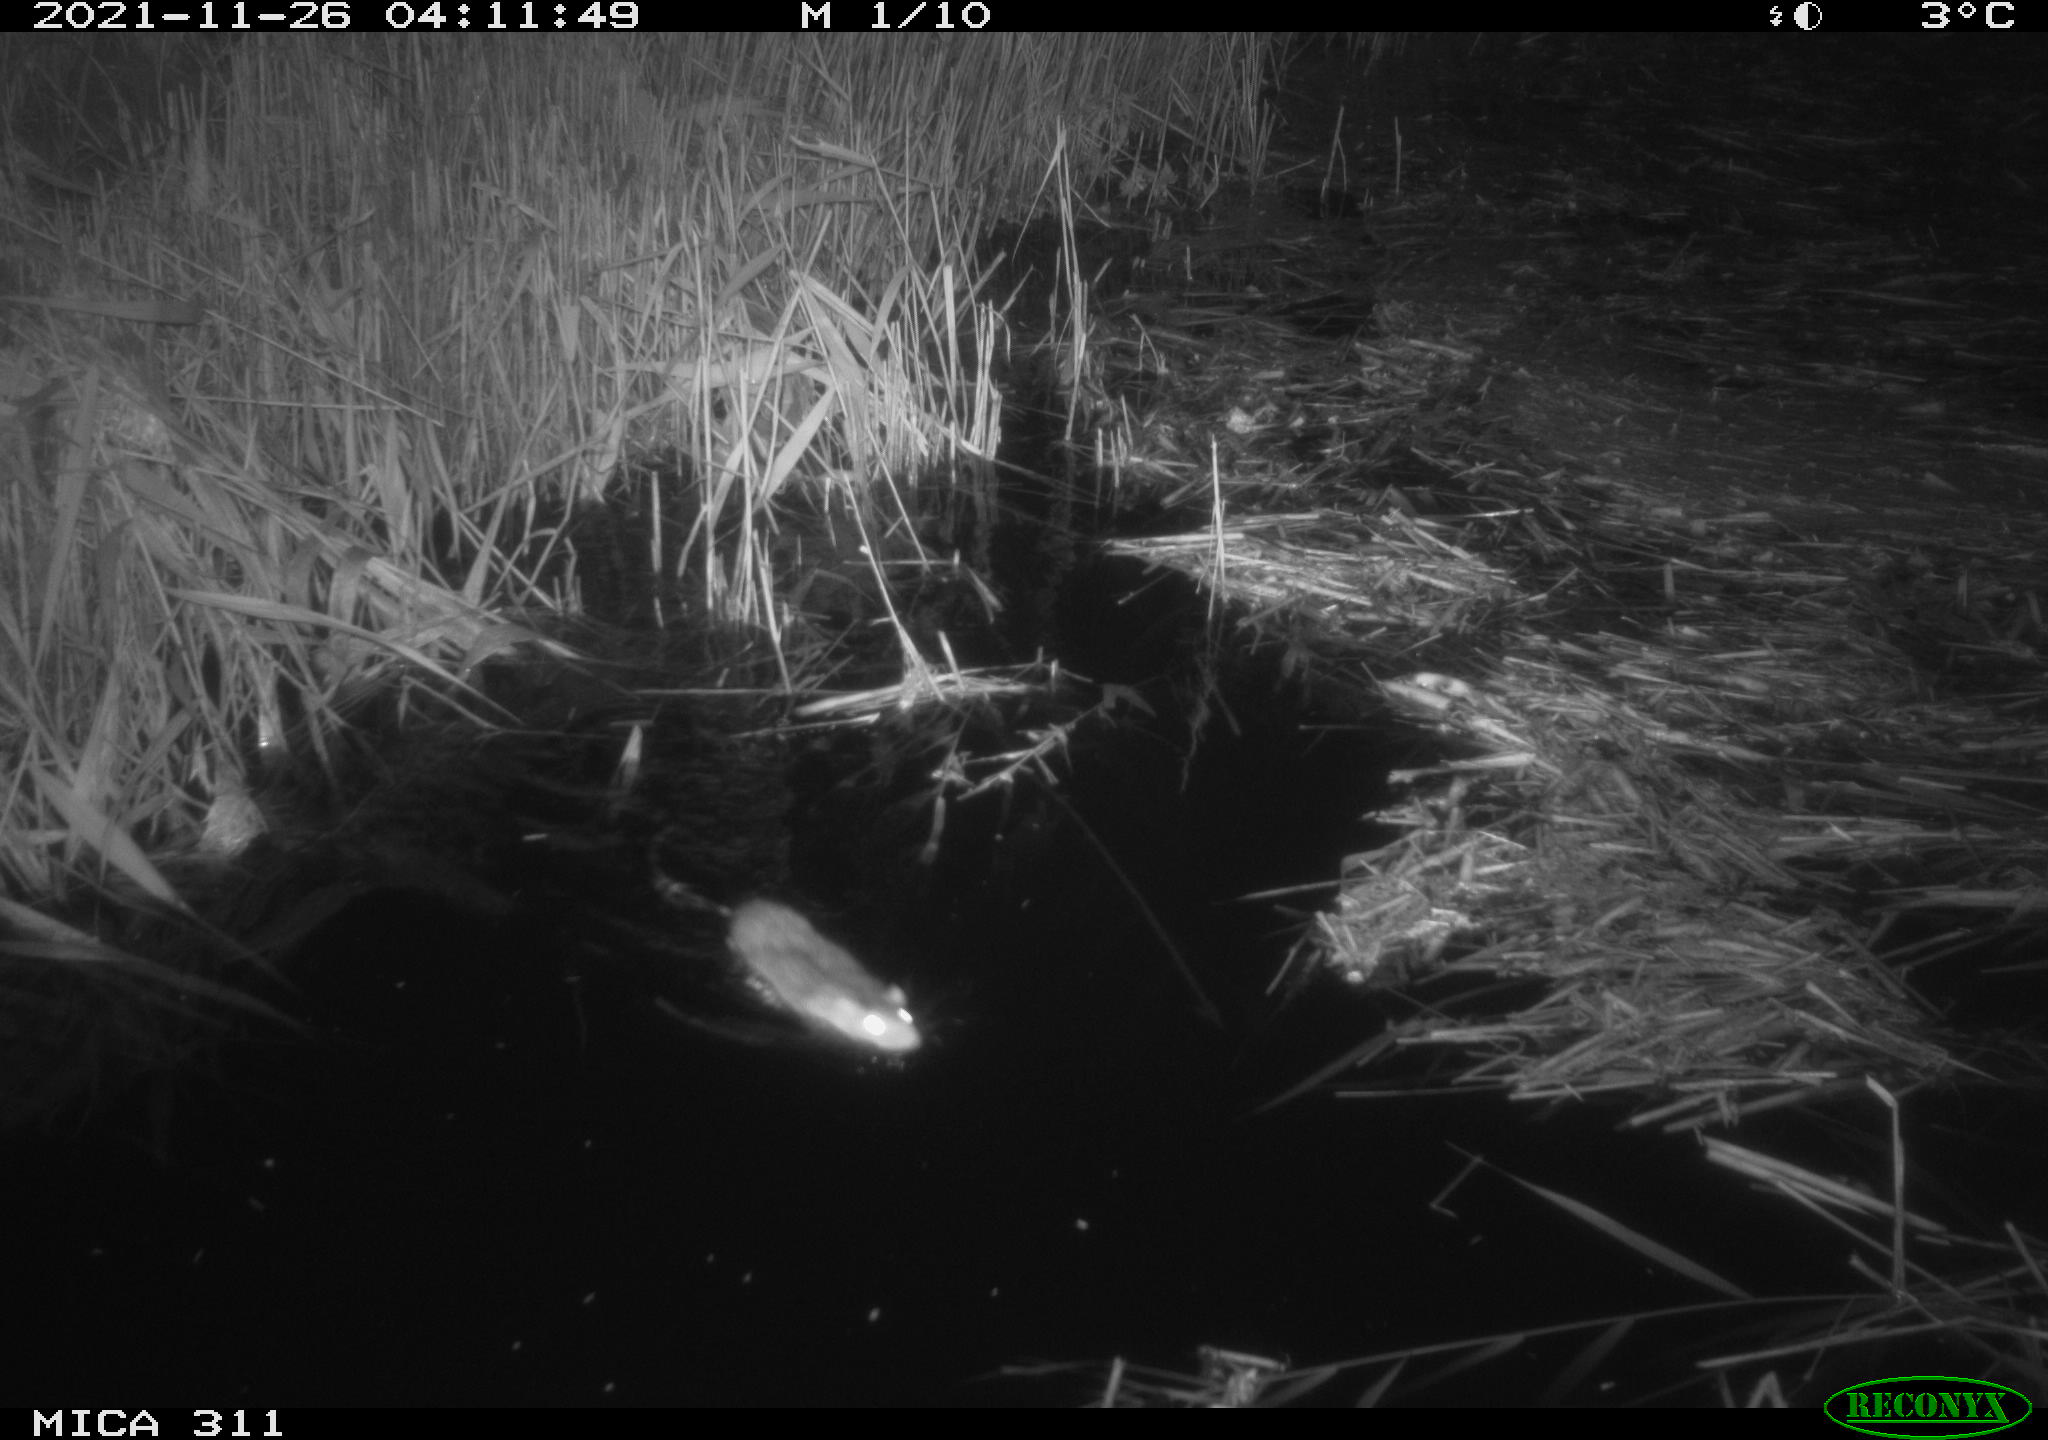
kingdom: Animalia
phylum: Chordata
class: Mammalia
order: Rodentia
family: Muridae
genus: Rattus
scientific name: Rattus norvegicus
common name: Brown rat
